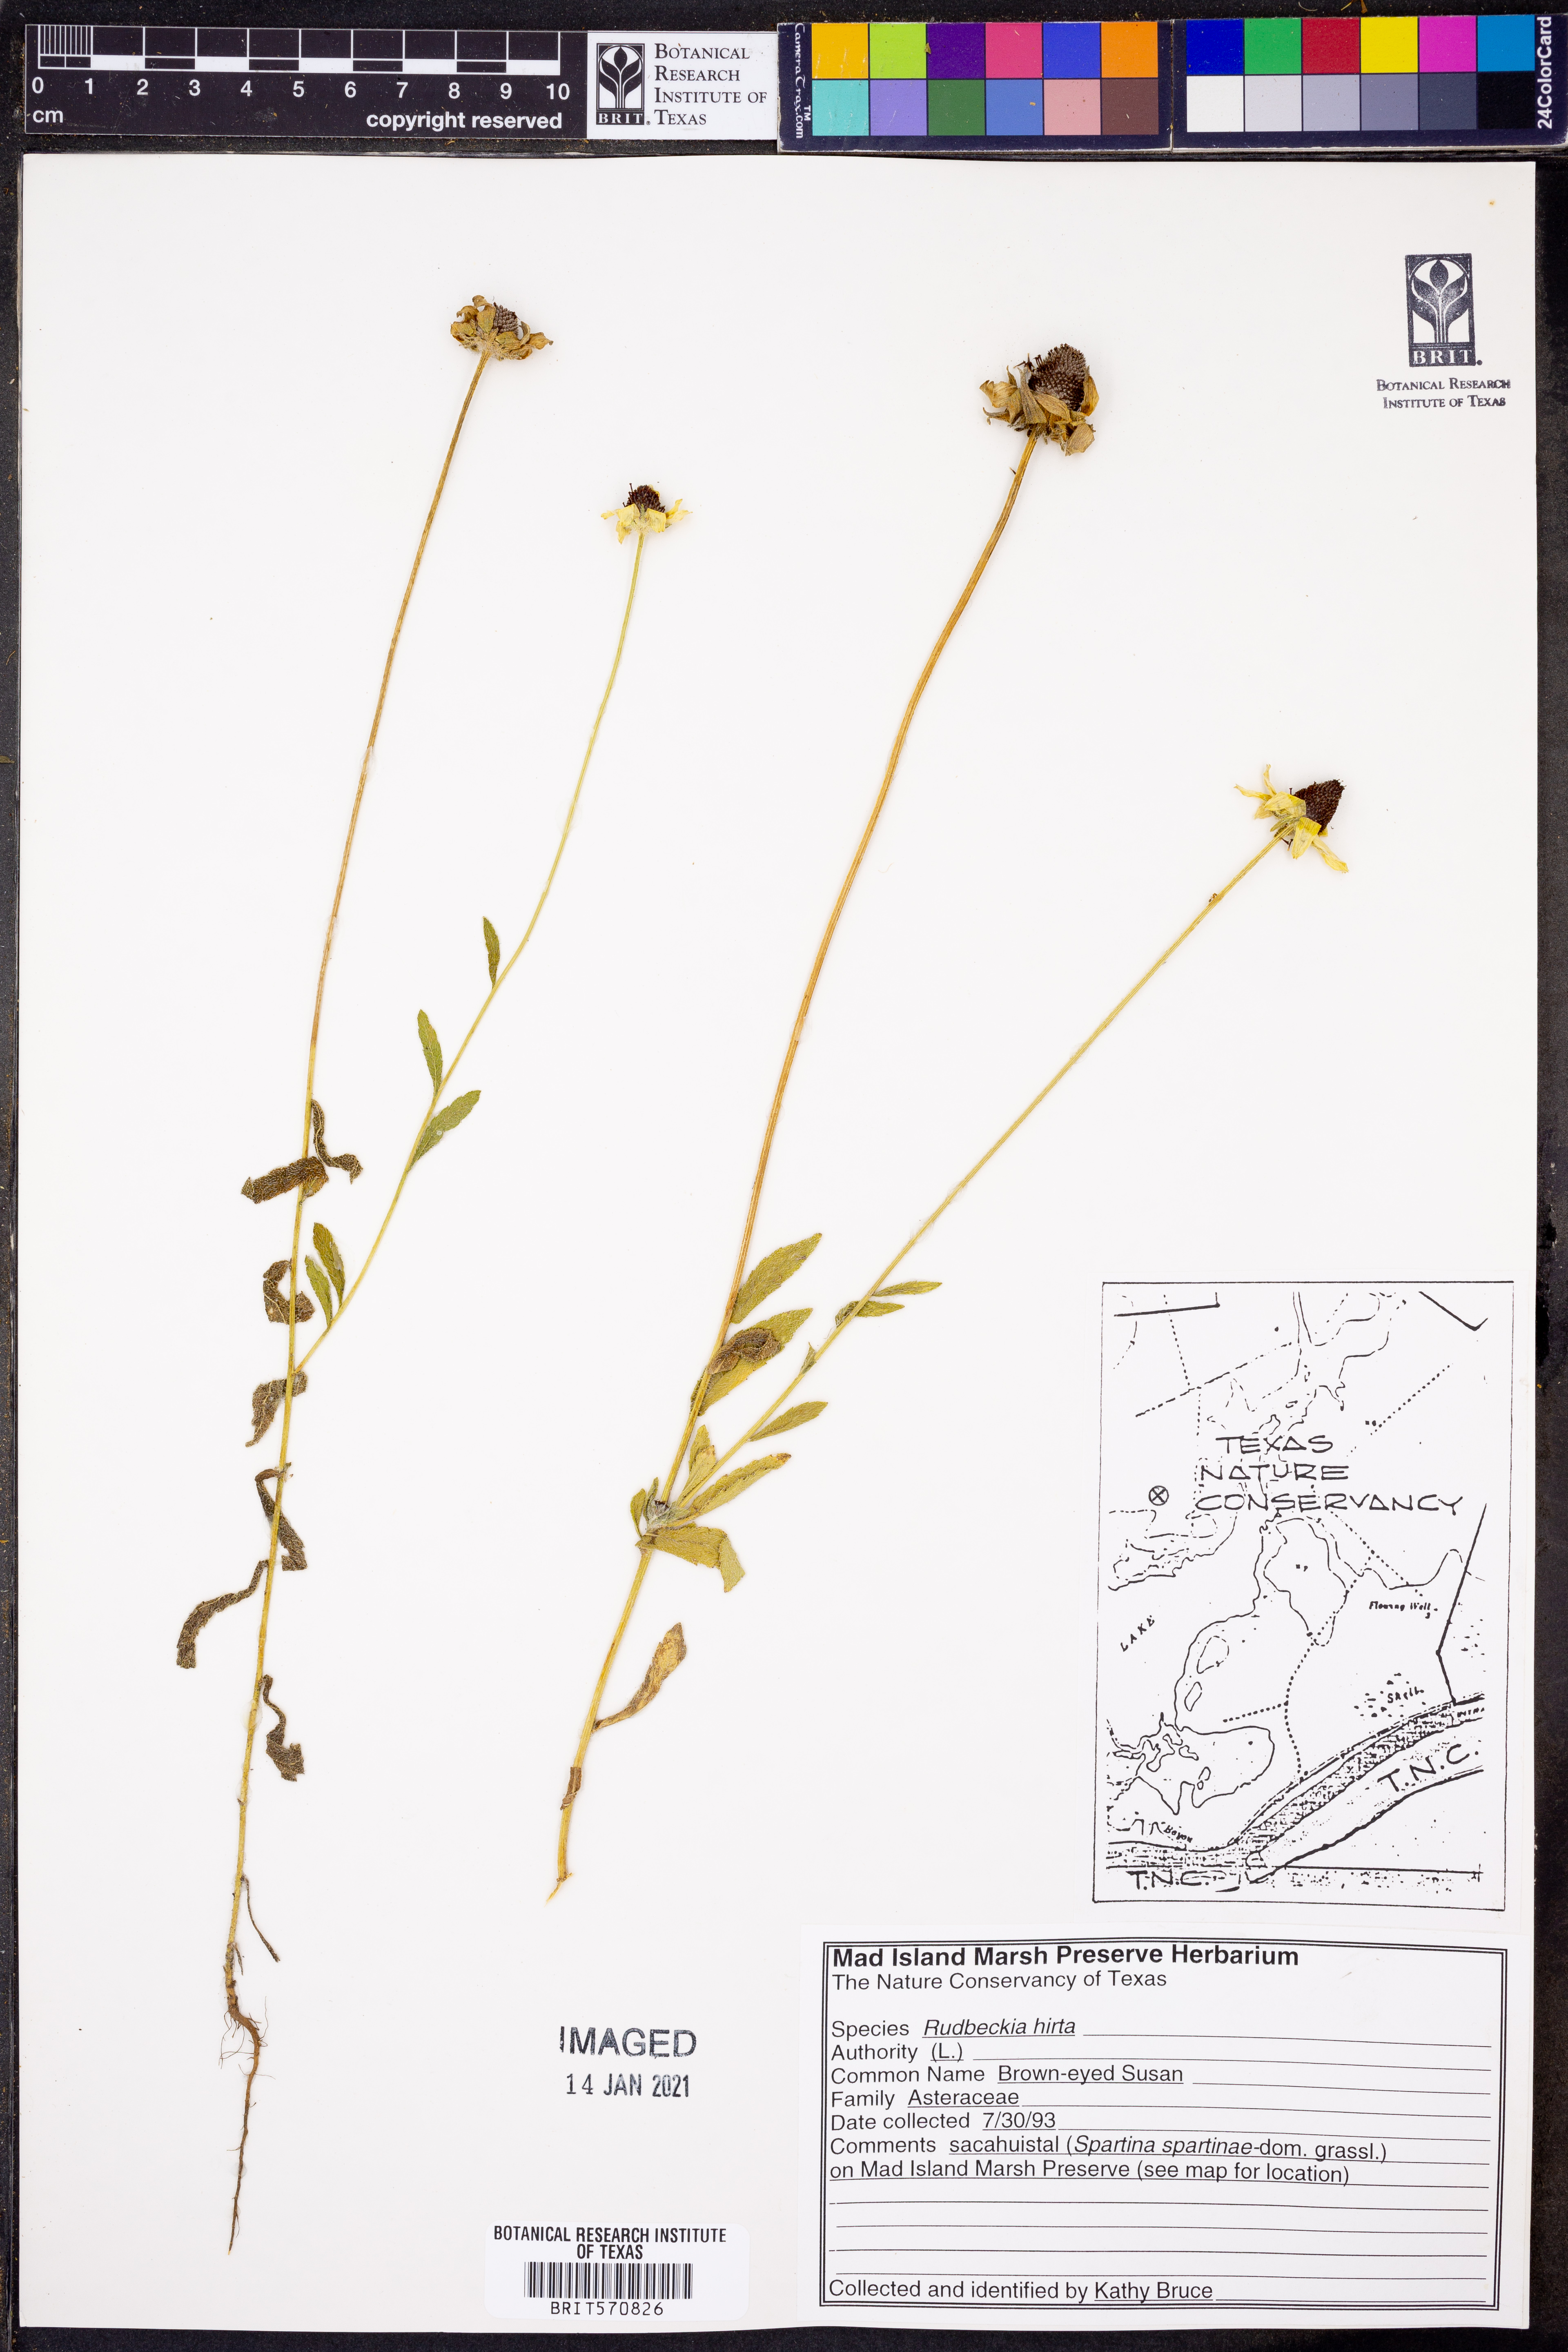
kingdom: Plantae
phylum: Tracheophyta
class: Magnoliopsida
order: Asterales
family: Asteraceae
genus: Rudbeckia
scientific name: Rudbeckia hirta
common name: Black-eyed-susan
